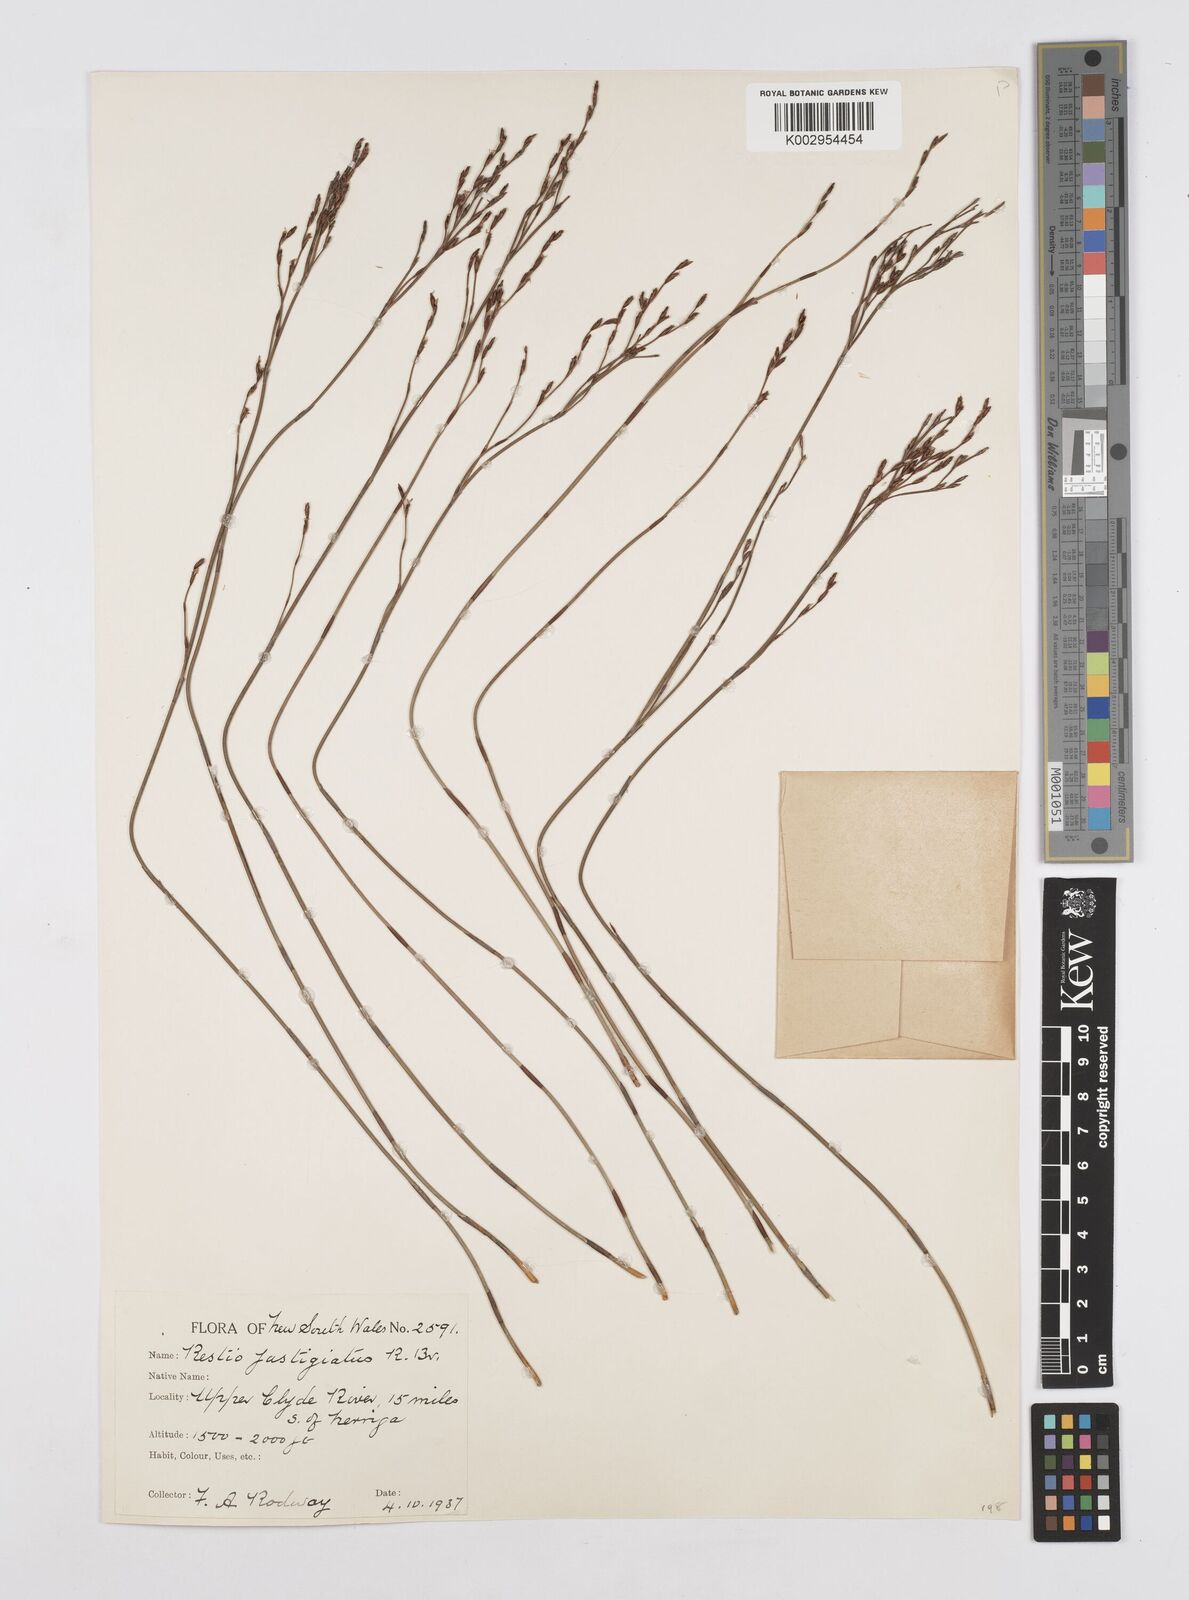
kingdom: Plantae
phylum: Tracheophyta
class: Liliopsida
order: Poales
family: Restionaceae
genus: Chordifex
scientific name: Chordifex fastigiatus
